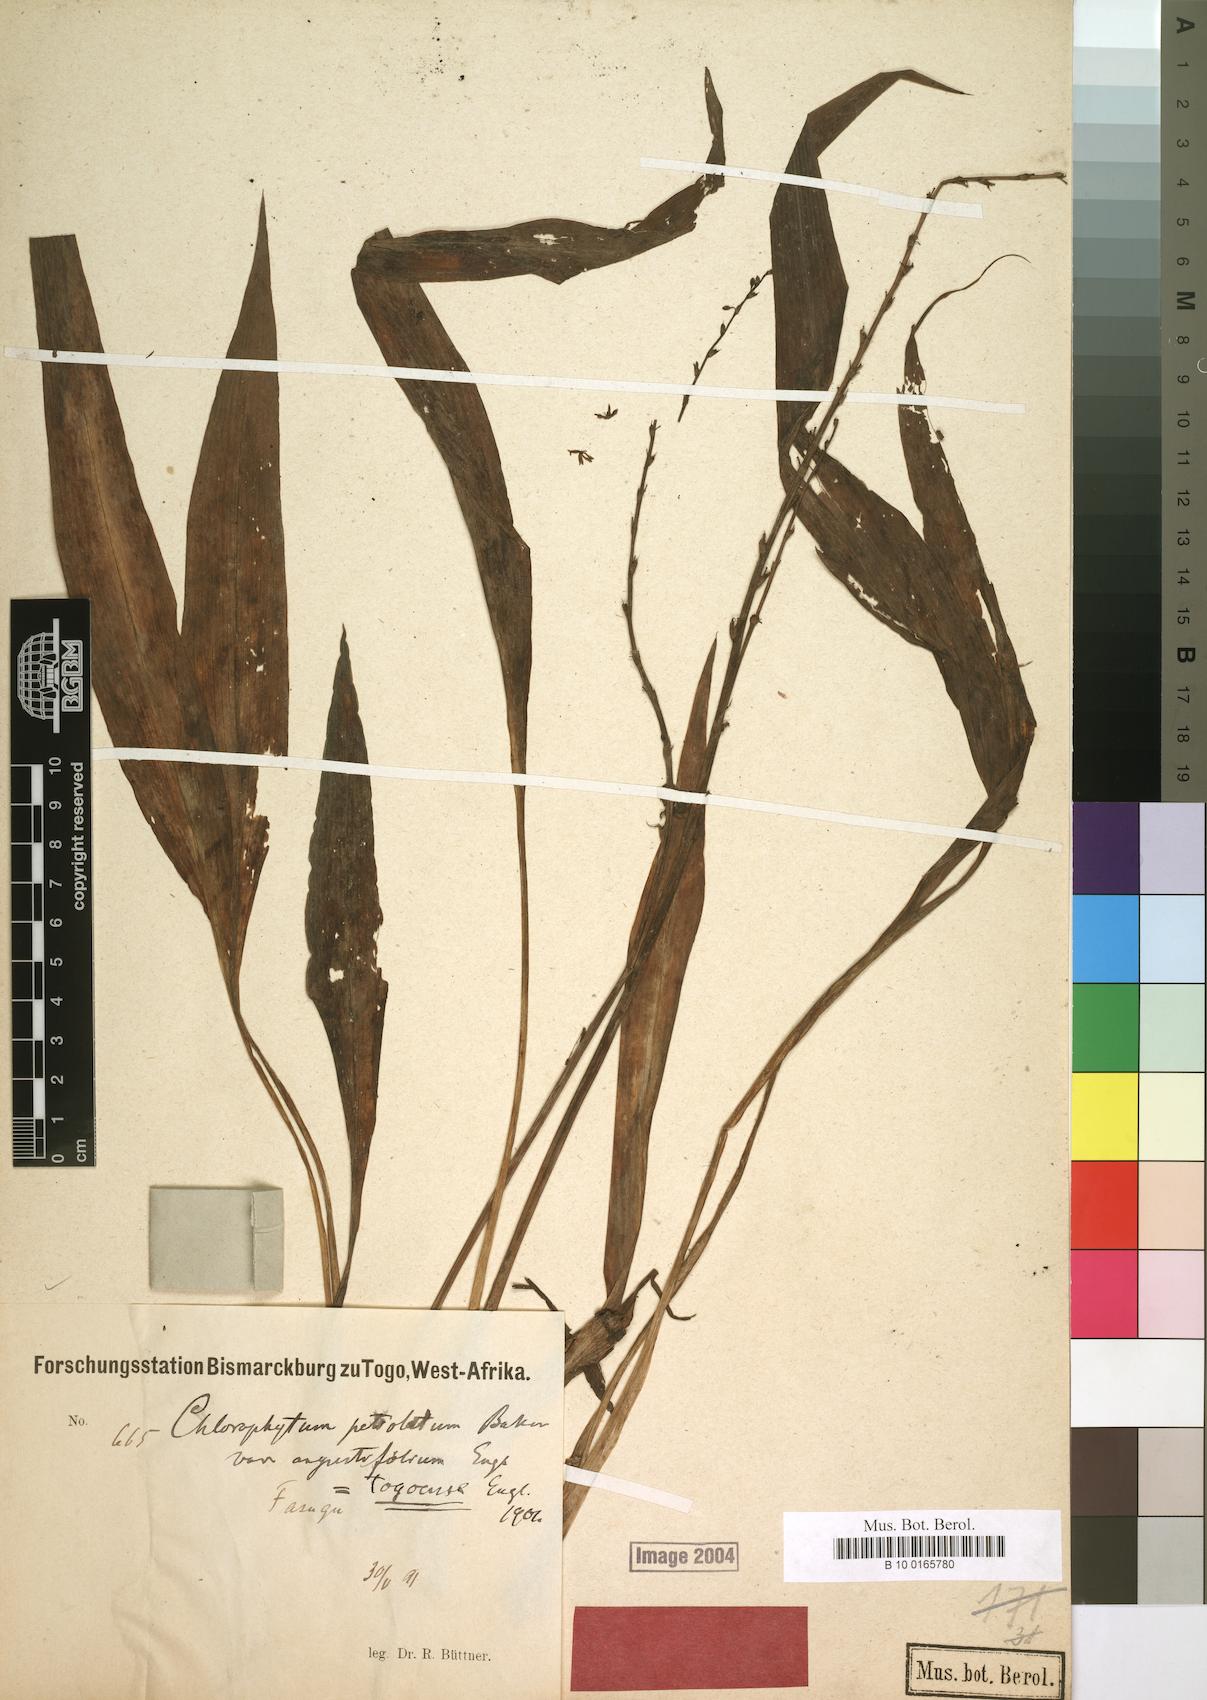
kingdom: Plantae
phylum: Tracheophyta
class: Liliopsida
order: Asparagales
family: Asparagaceae
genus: Chlorophytum
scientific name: Chlorophytum lancifolium
